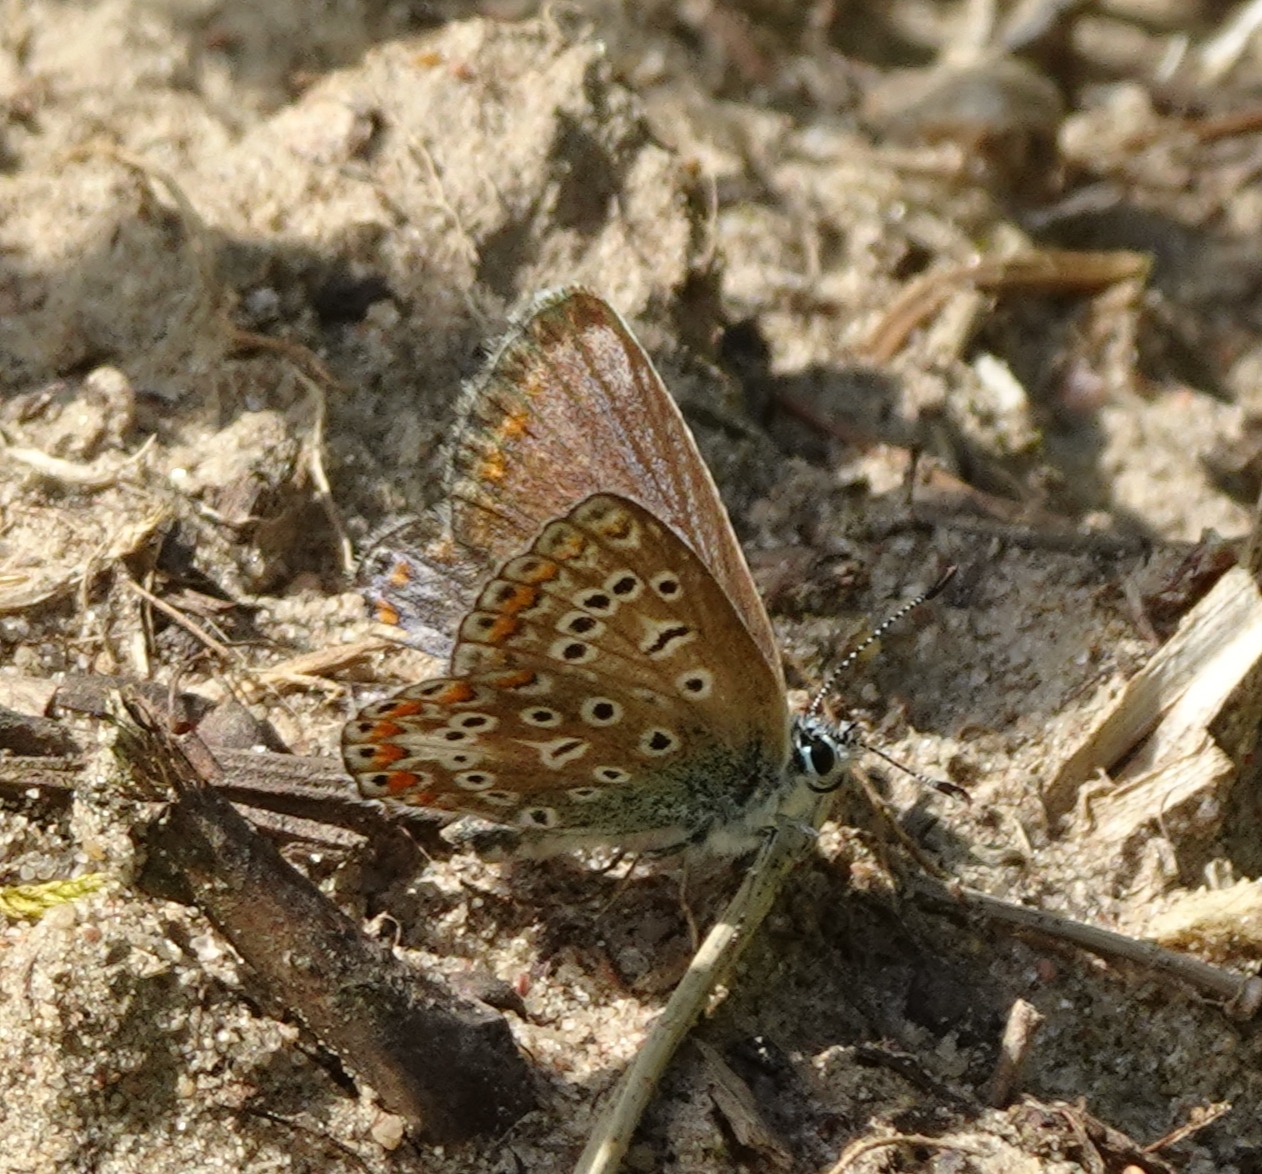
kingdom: Animalia
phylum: Arthropoda
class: Insecta
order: Lepidoptera
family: Lycaenidae
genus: Polyommatus
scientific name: Polyommatus icarus
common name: Almindelig blåfugl
